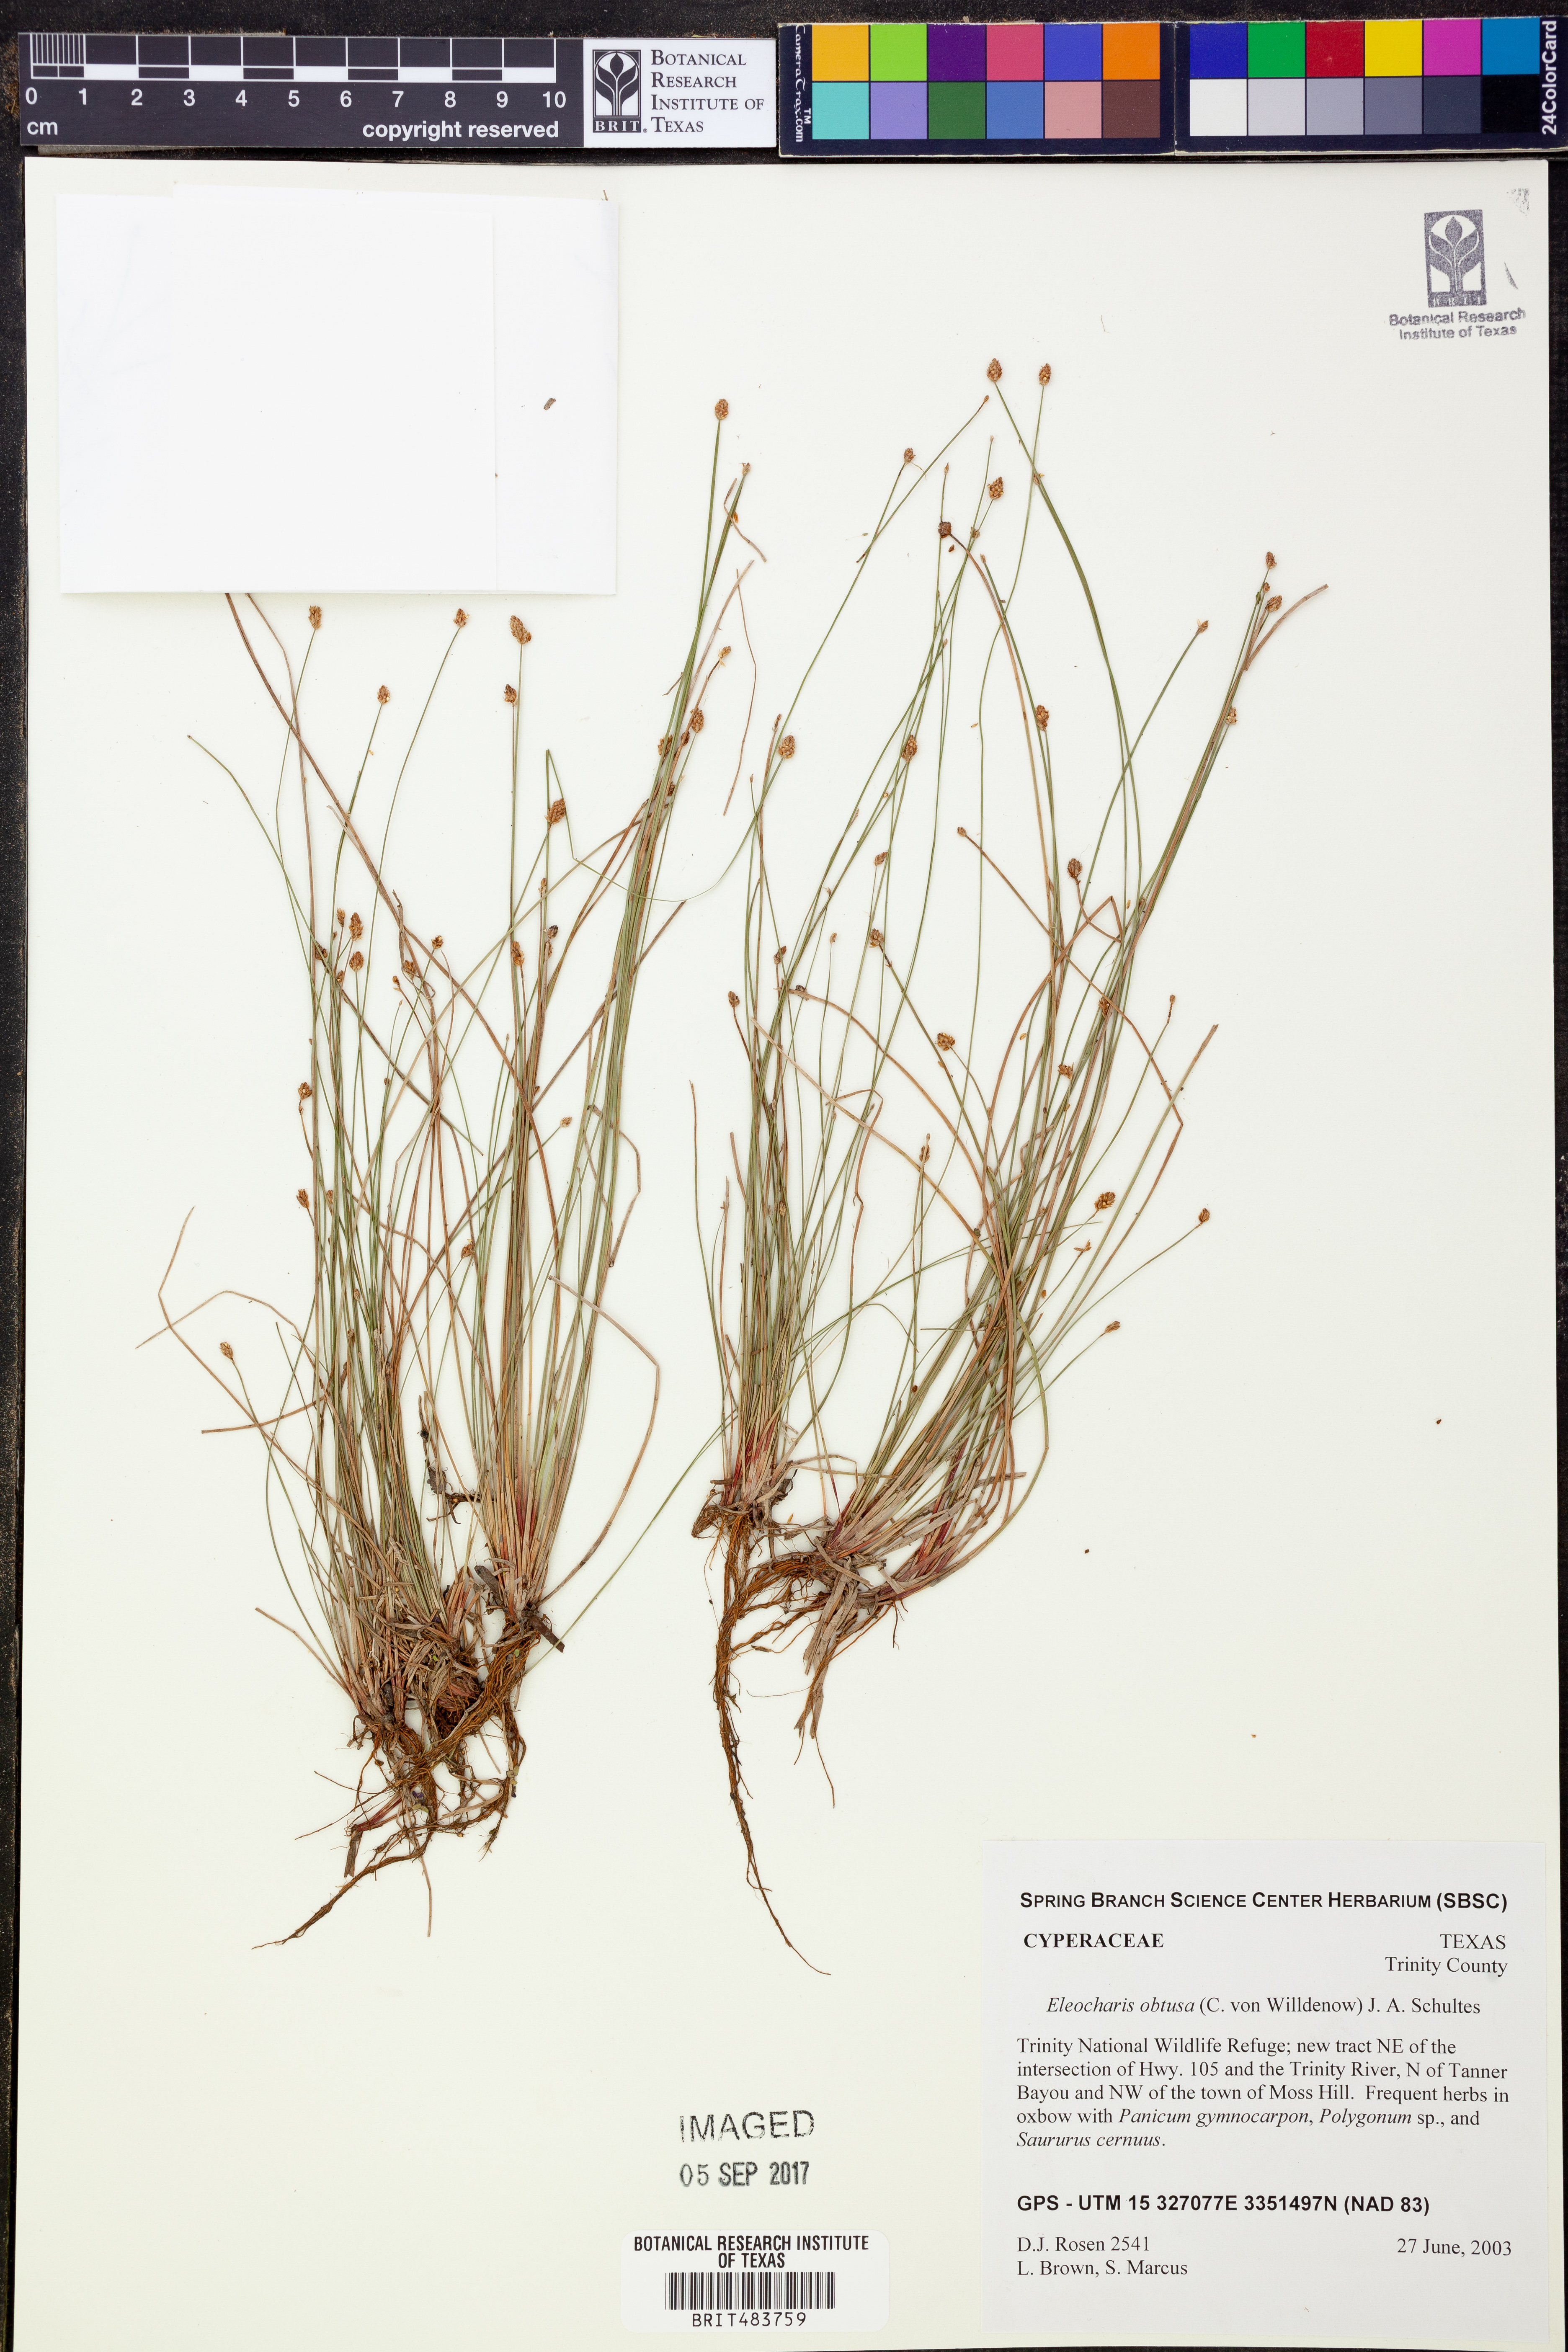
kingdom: Plantae
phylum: Tracheophyta
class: Liliopsida
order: Poales
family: Cyperaceae
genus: Eleocharis
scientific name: Eleocharis obtusa
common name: Blunt spikerush
